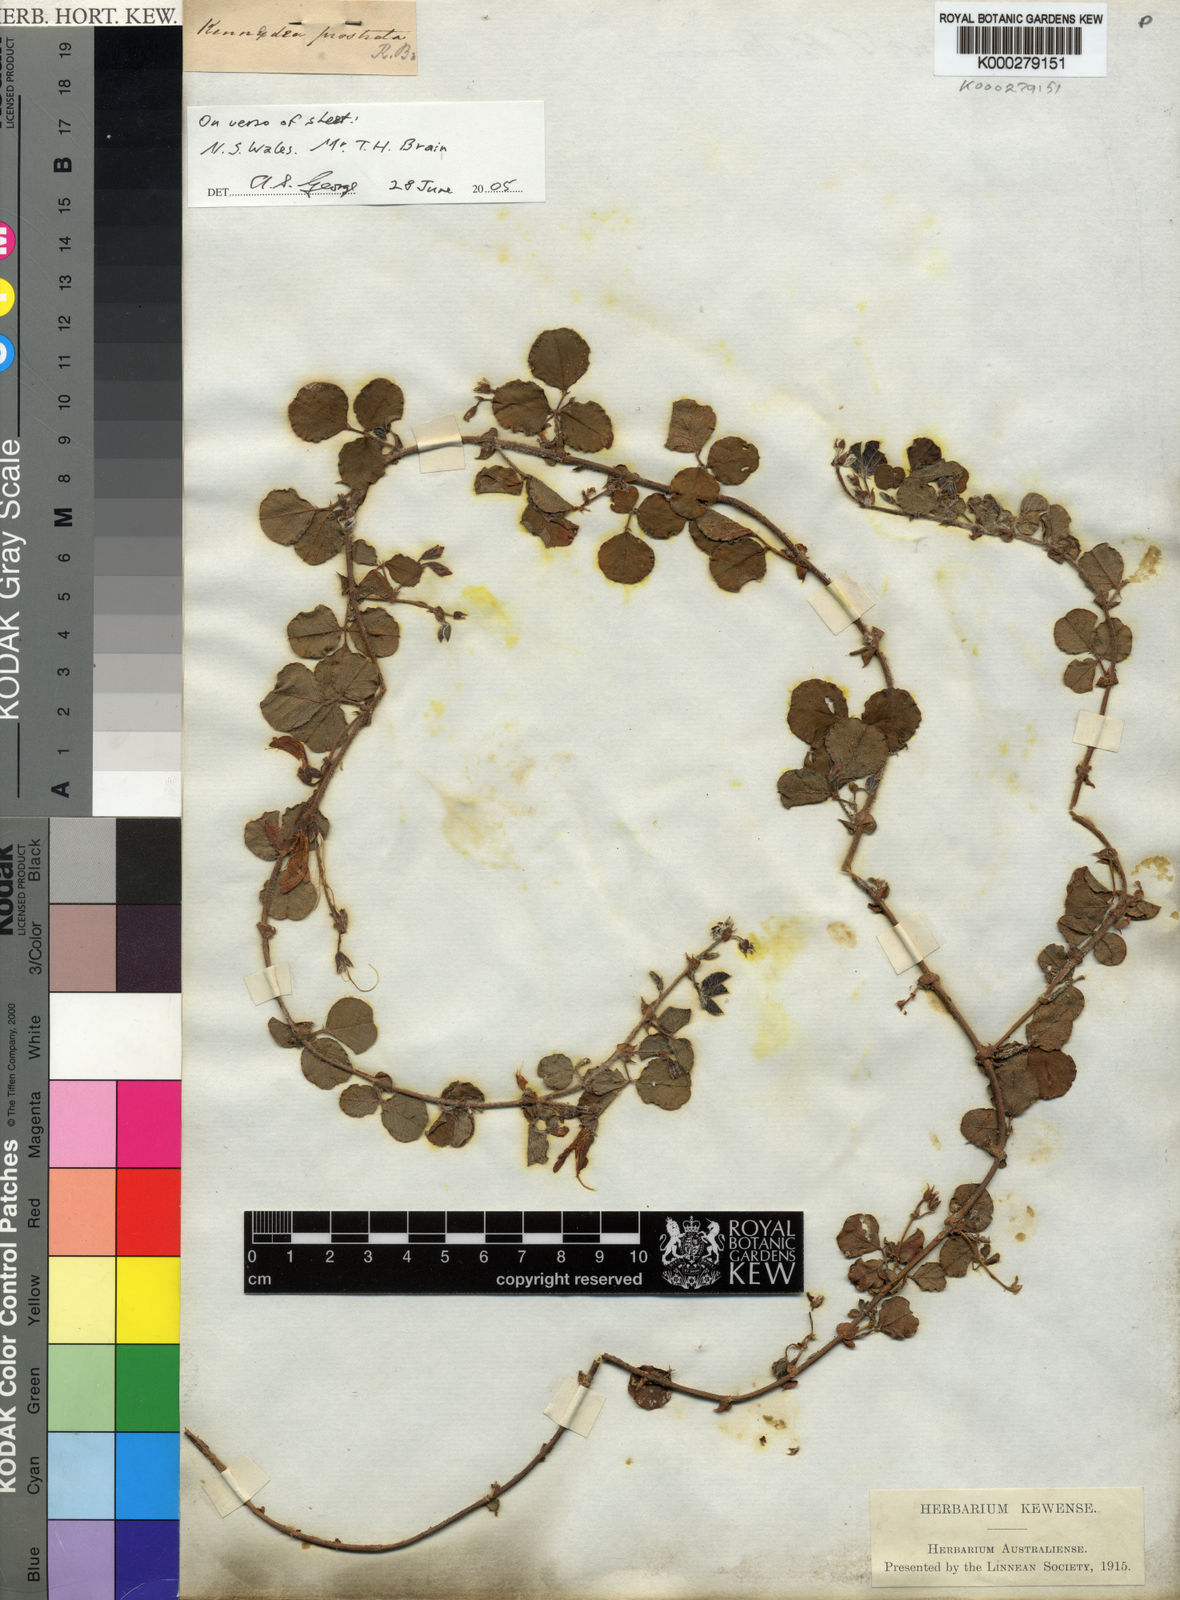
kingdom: Plantae
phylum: Tracheophyta
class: Magnoliopsida
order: Fabales
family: Fabaceae
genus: Kennedia
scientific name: Kennedia prostrata
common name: Running-postman
